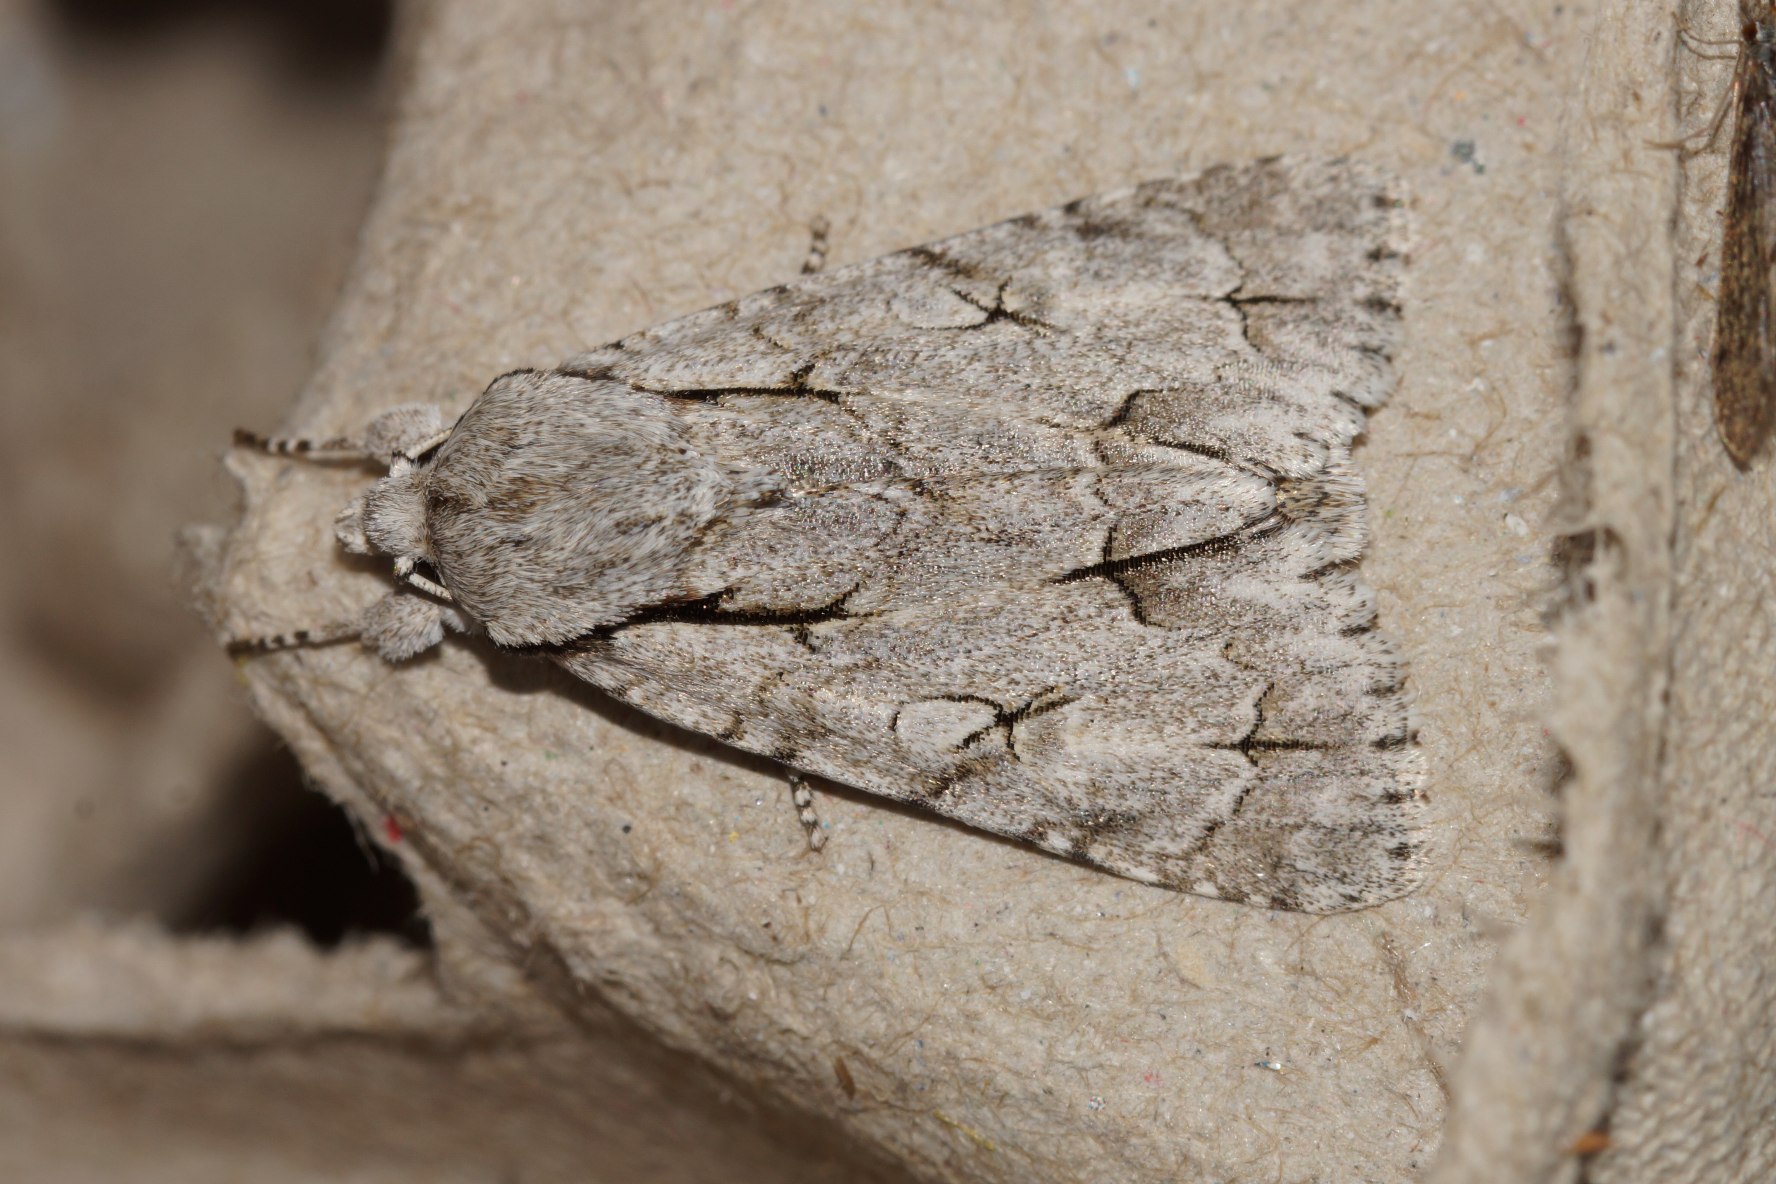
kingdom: Animalia
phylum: Arthropoda
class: Insecta
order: Lepidoptera
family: Noctuidae
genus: Acronicta
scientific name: Acronicta psi
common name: Psi-ugle
